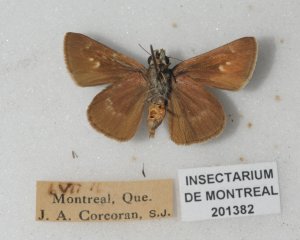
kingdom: Animalia
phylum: Arthropoda
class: Insecta
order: Lepidoptera
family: Hesperiidae
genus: Polites
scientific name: Polites egeremet
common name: Northern Broken-Dash
